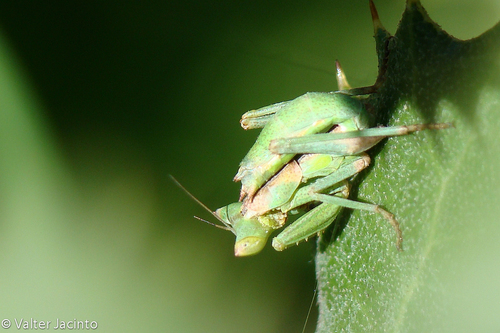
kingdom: Animalia
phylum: Arthropoda
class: Insecta
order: Mantodea
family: Amelidae
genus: Ameles
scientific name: Ameles spallanzania
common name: European dwarf mantis
